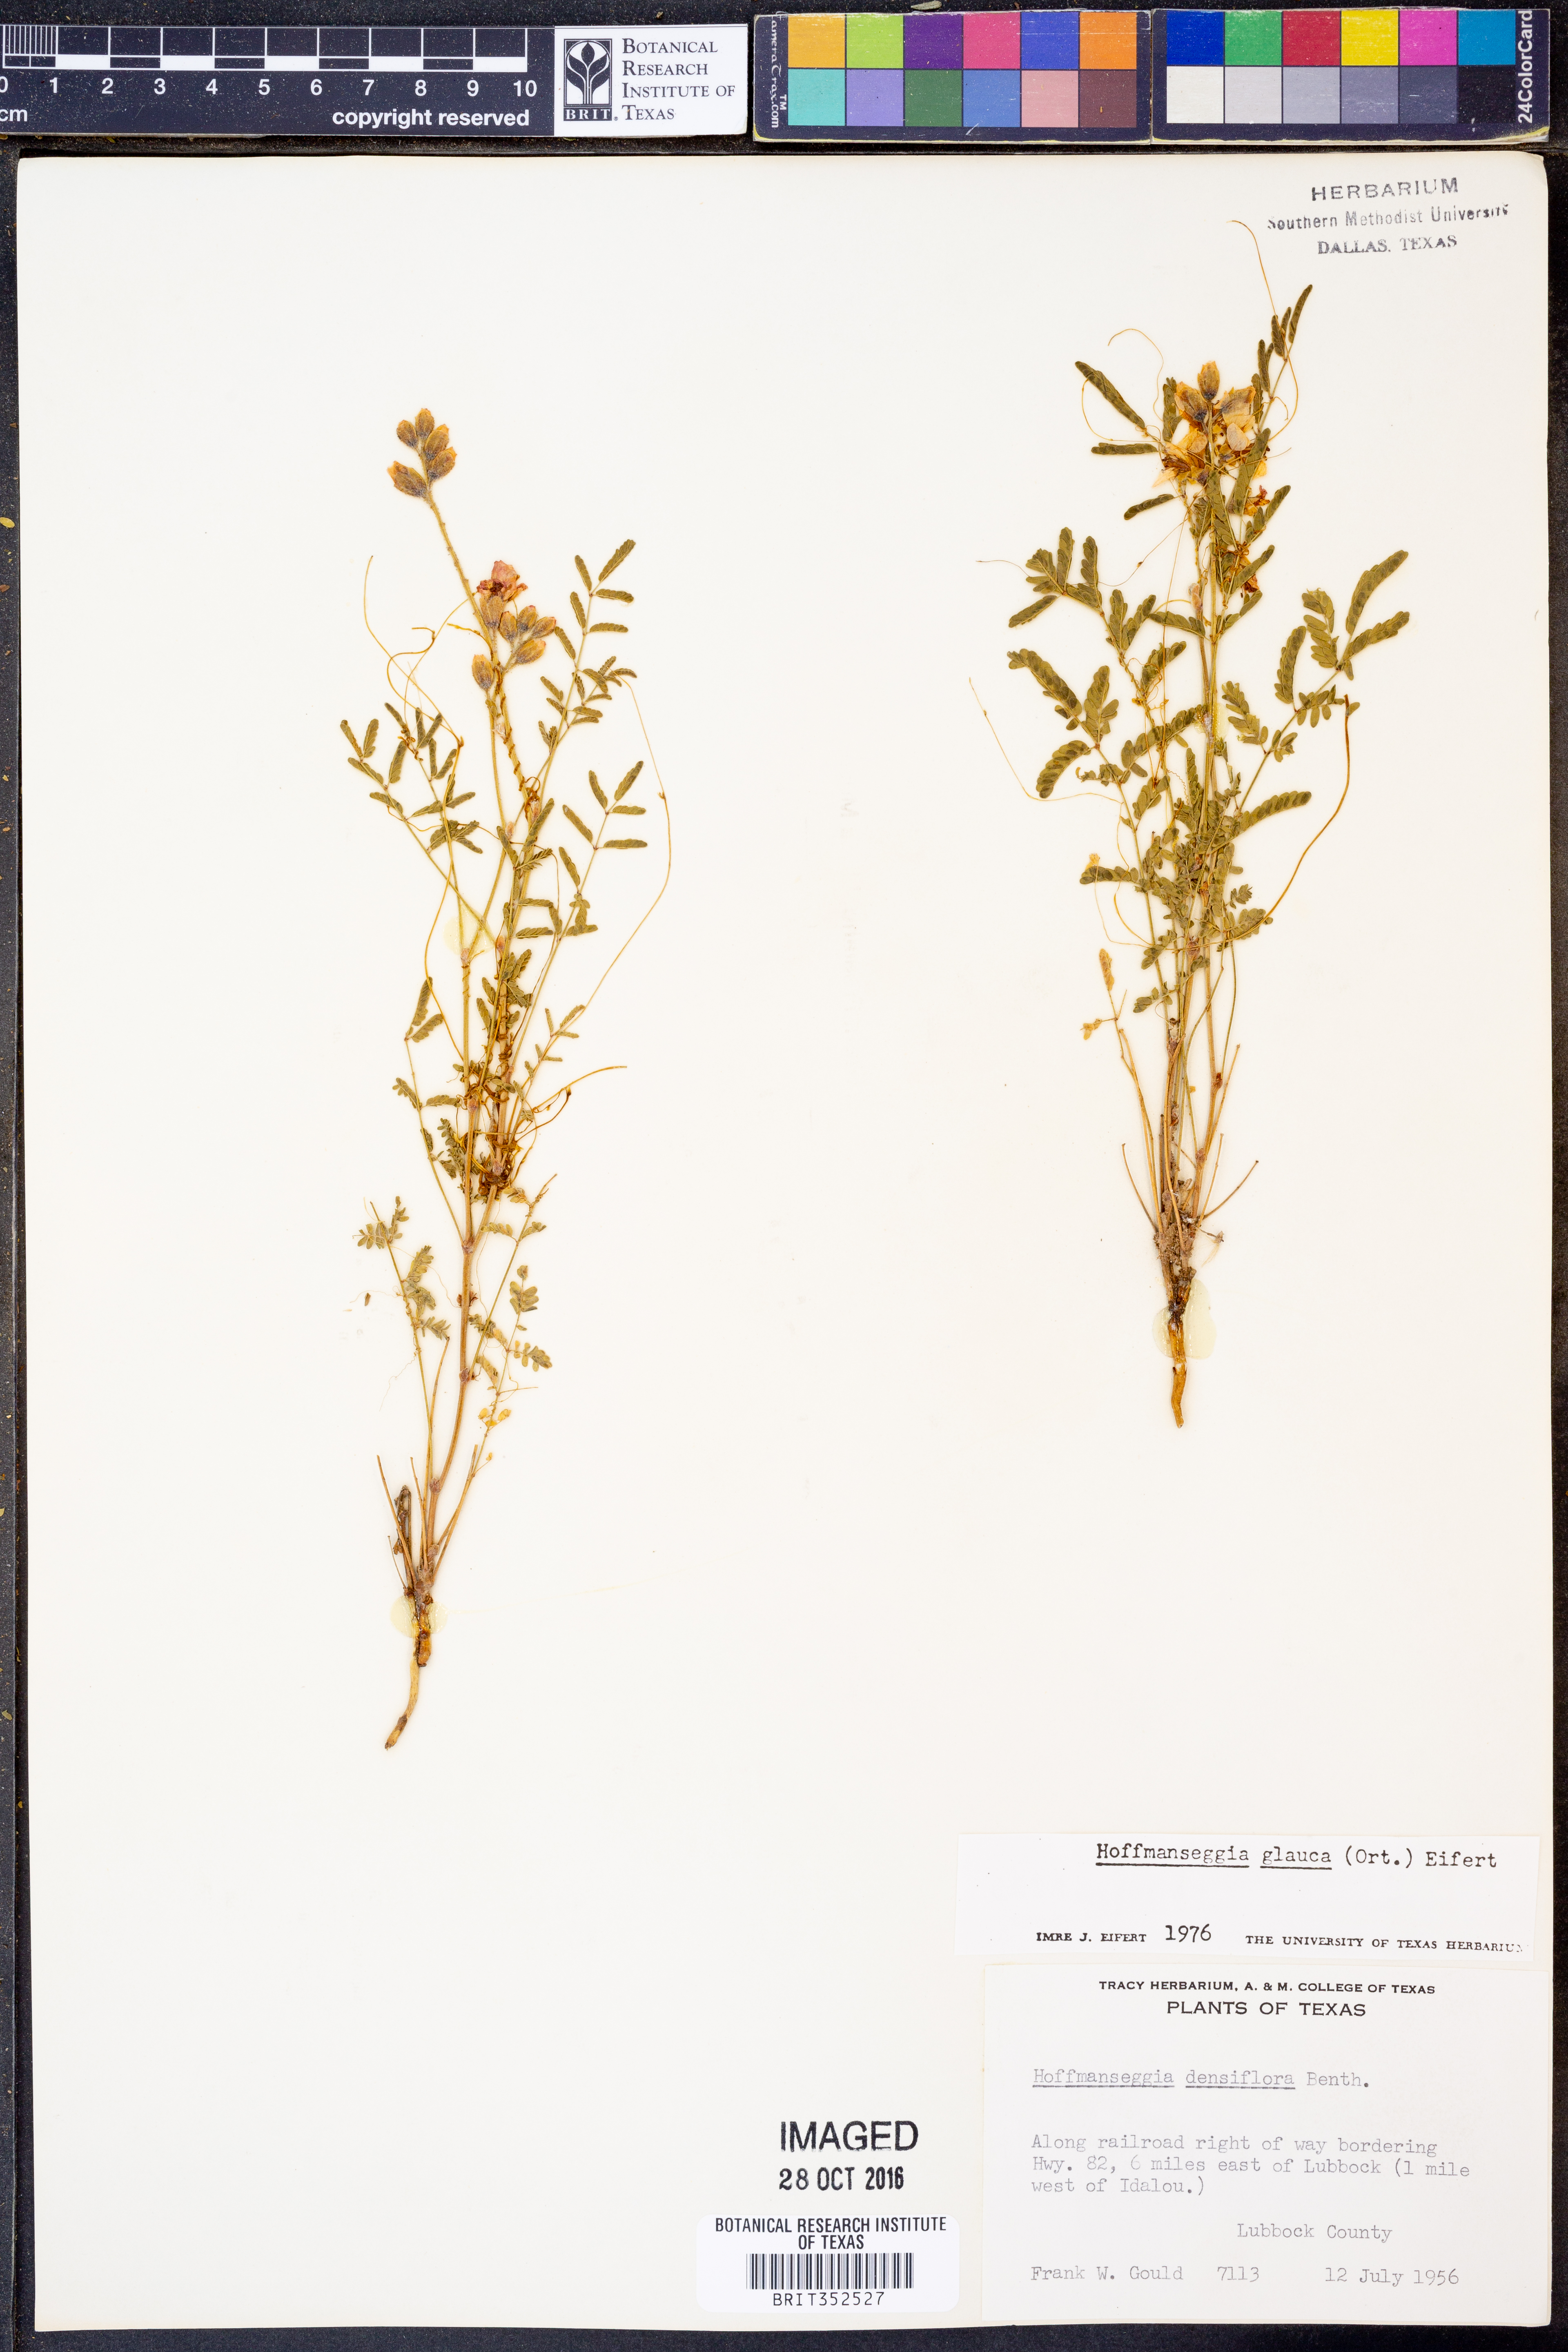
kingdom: Plantae
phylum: Tracheophyta
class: Magnoliopsida
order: Fabales
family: Fabaceae
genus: Hoffmannseggia
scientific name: Hoffmannseggia glauca
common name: Pignut
